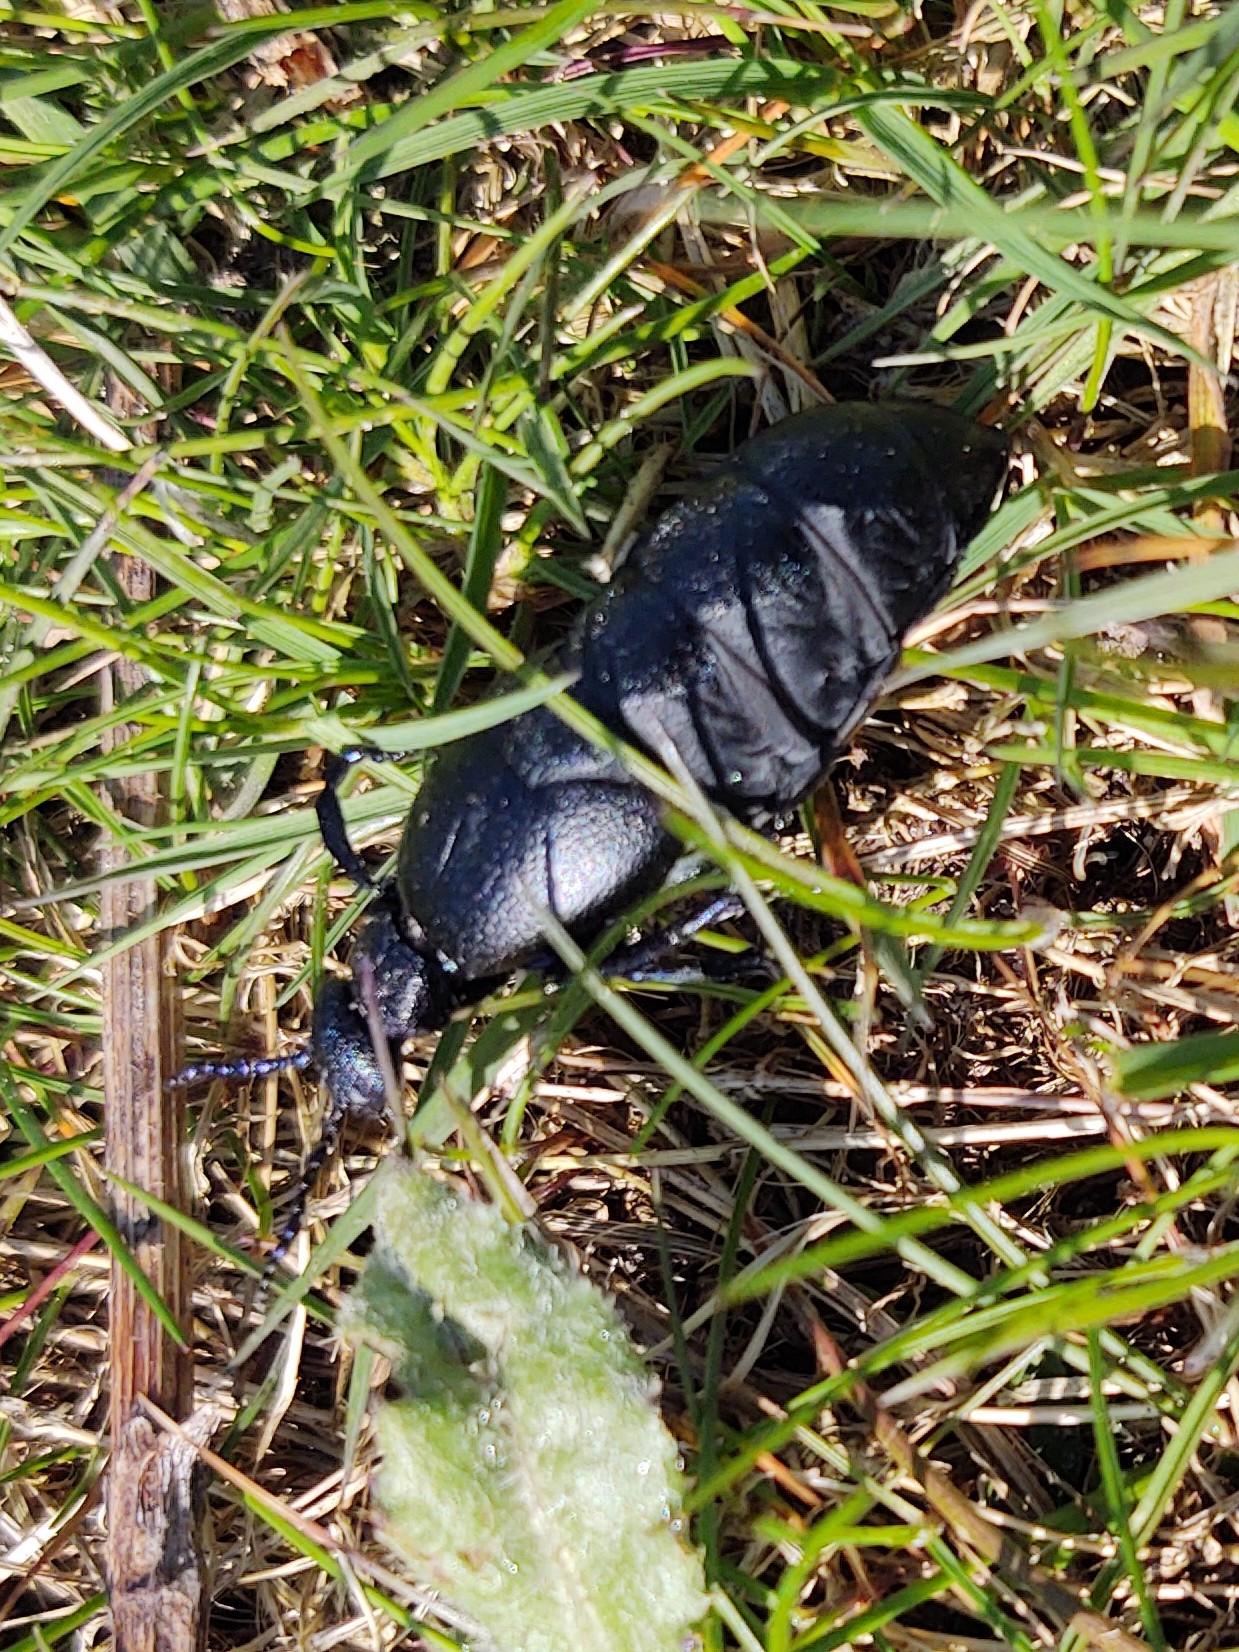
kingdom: Animalia
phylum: Arthropoda
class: Insecta
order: Coleoptera
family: Meloidae
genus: Meloe
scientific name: Meloe proscarabaeus
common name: Sort oliebille
